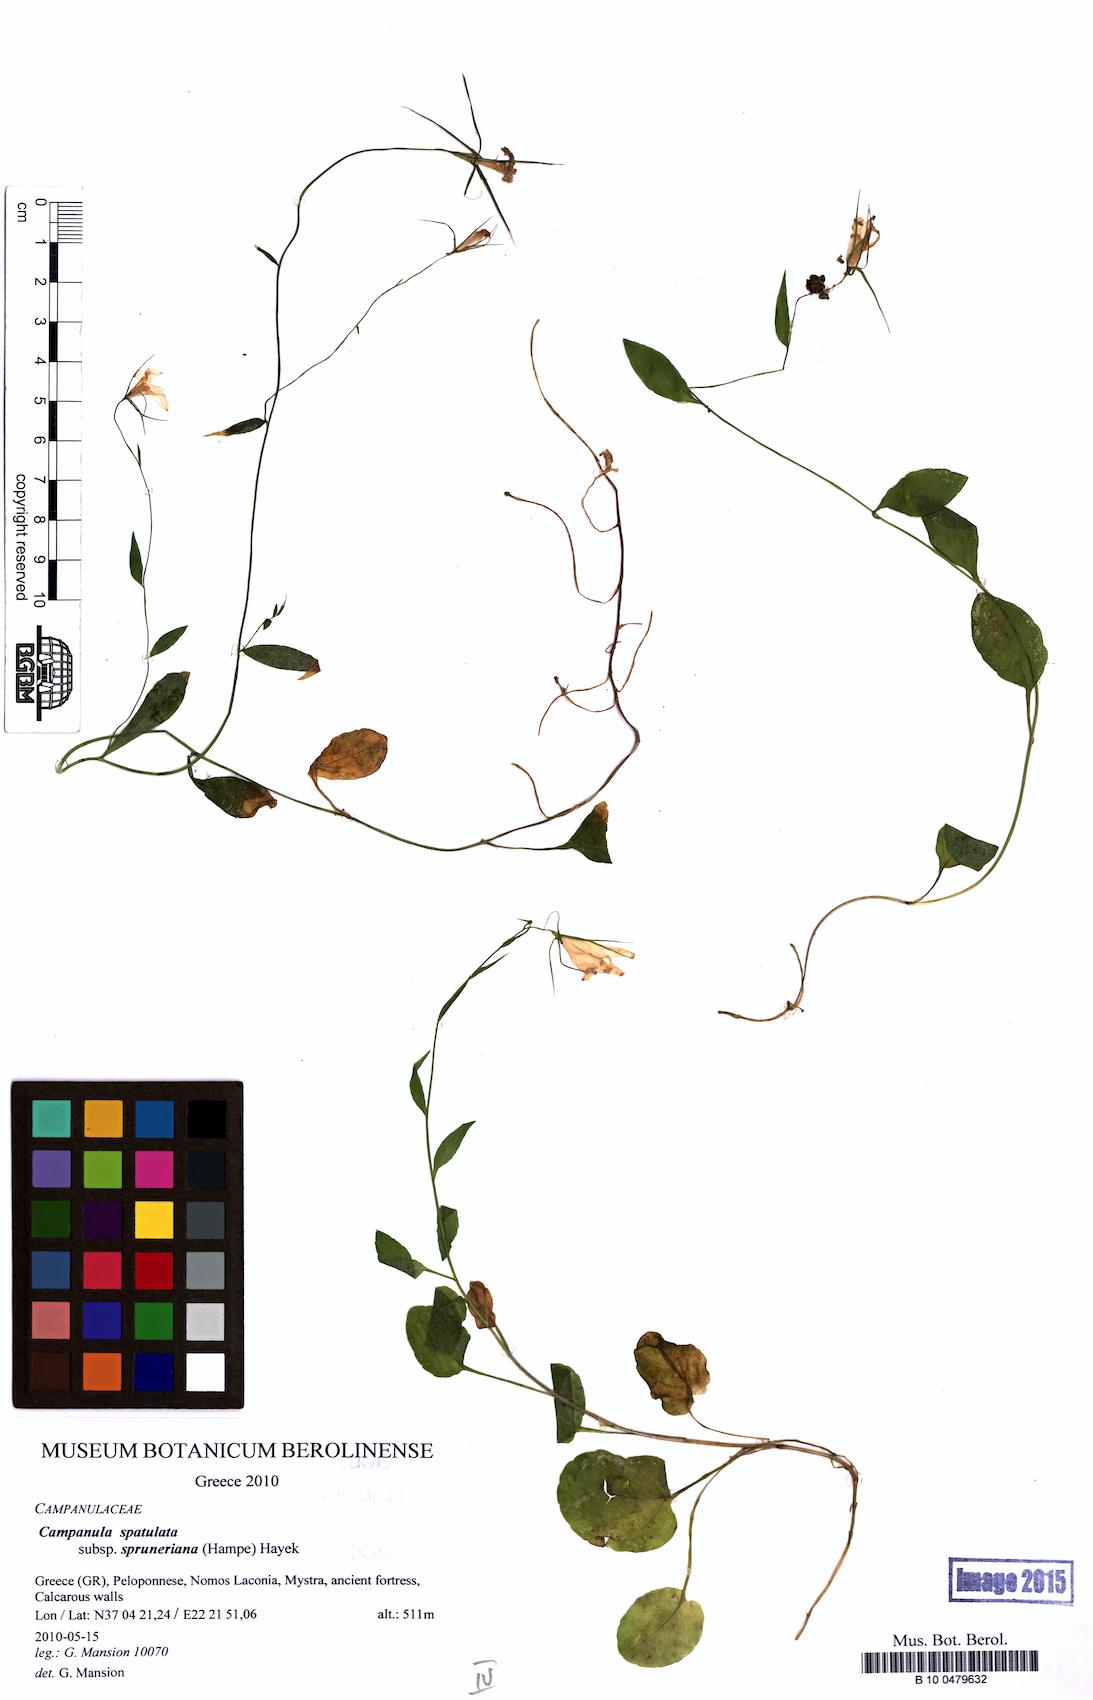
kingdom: Plantae
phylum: Tracheophyta
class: Magnoliopsida
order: Asterales
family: Campanulaceae
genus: Campanula
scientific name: Campanula spatulata
